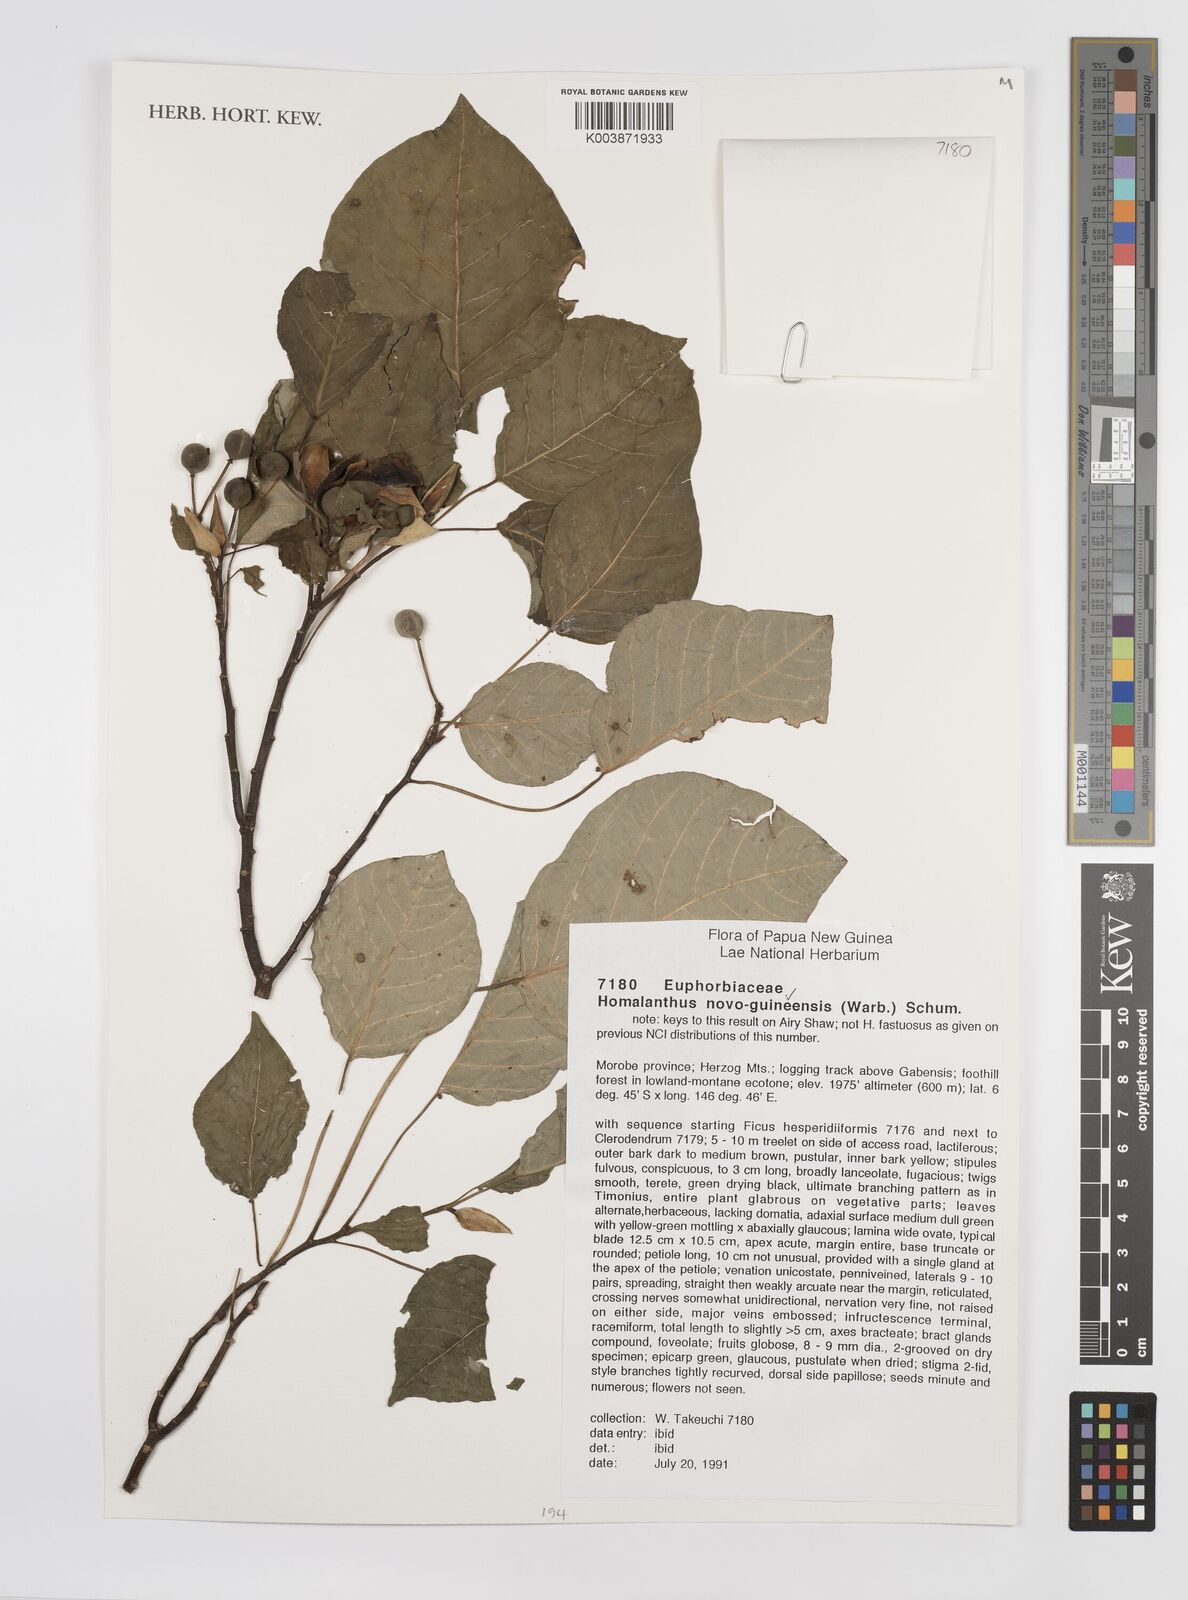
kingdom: Plantae
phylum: Tracheophyta
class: Magnoliopsida
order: Malpighiales
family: Euphorbiaceae
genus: Homalanthus
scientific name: Homalanthus novoguineensis
